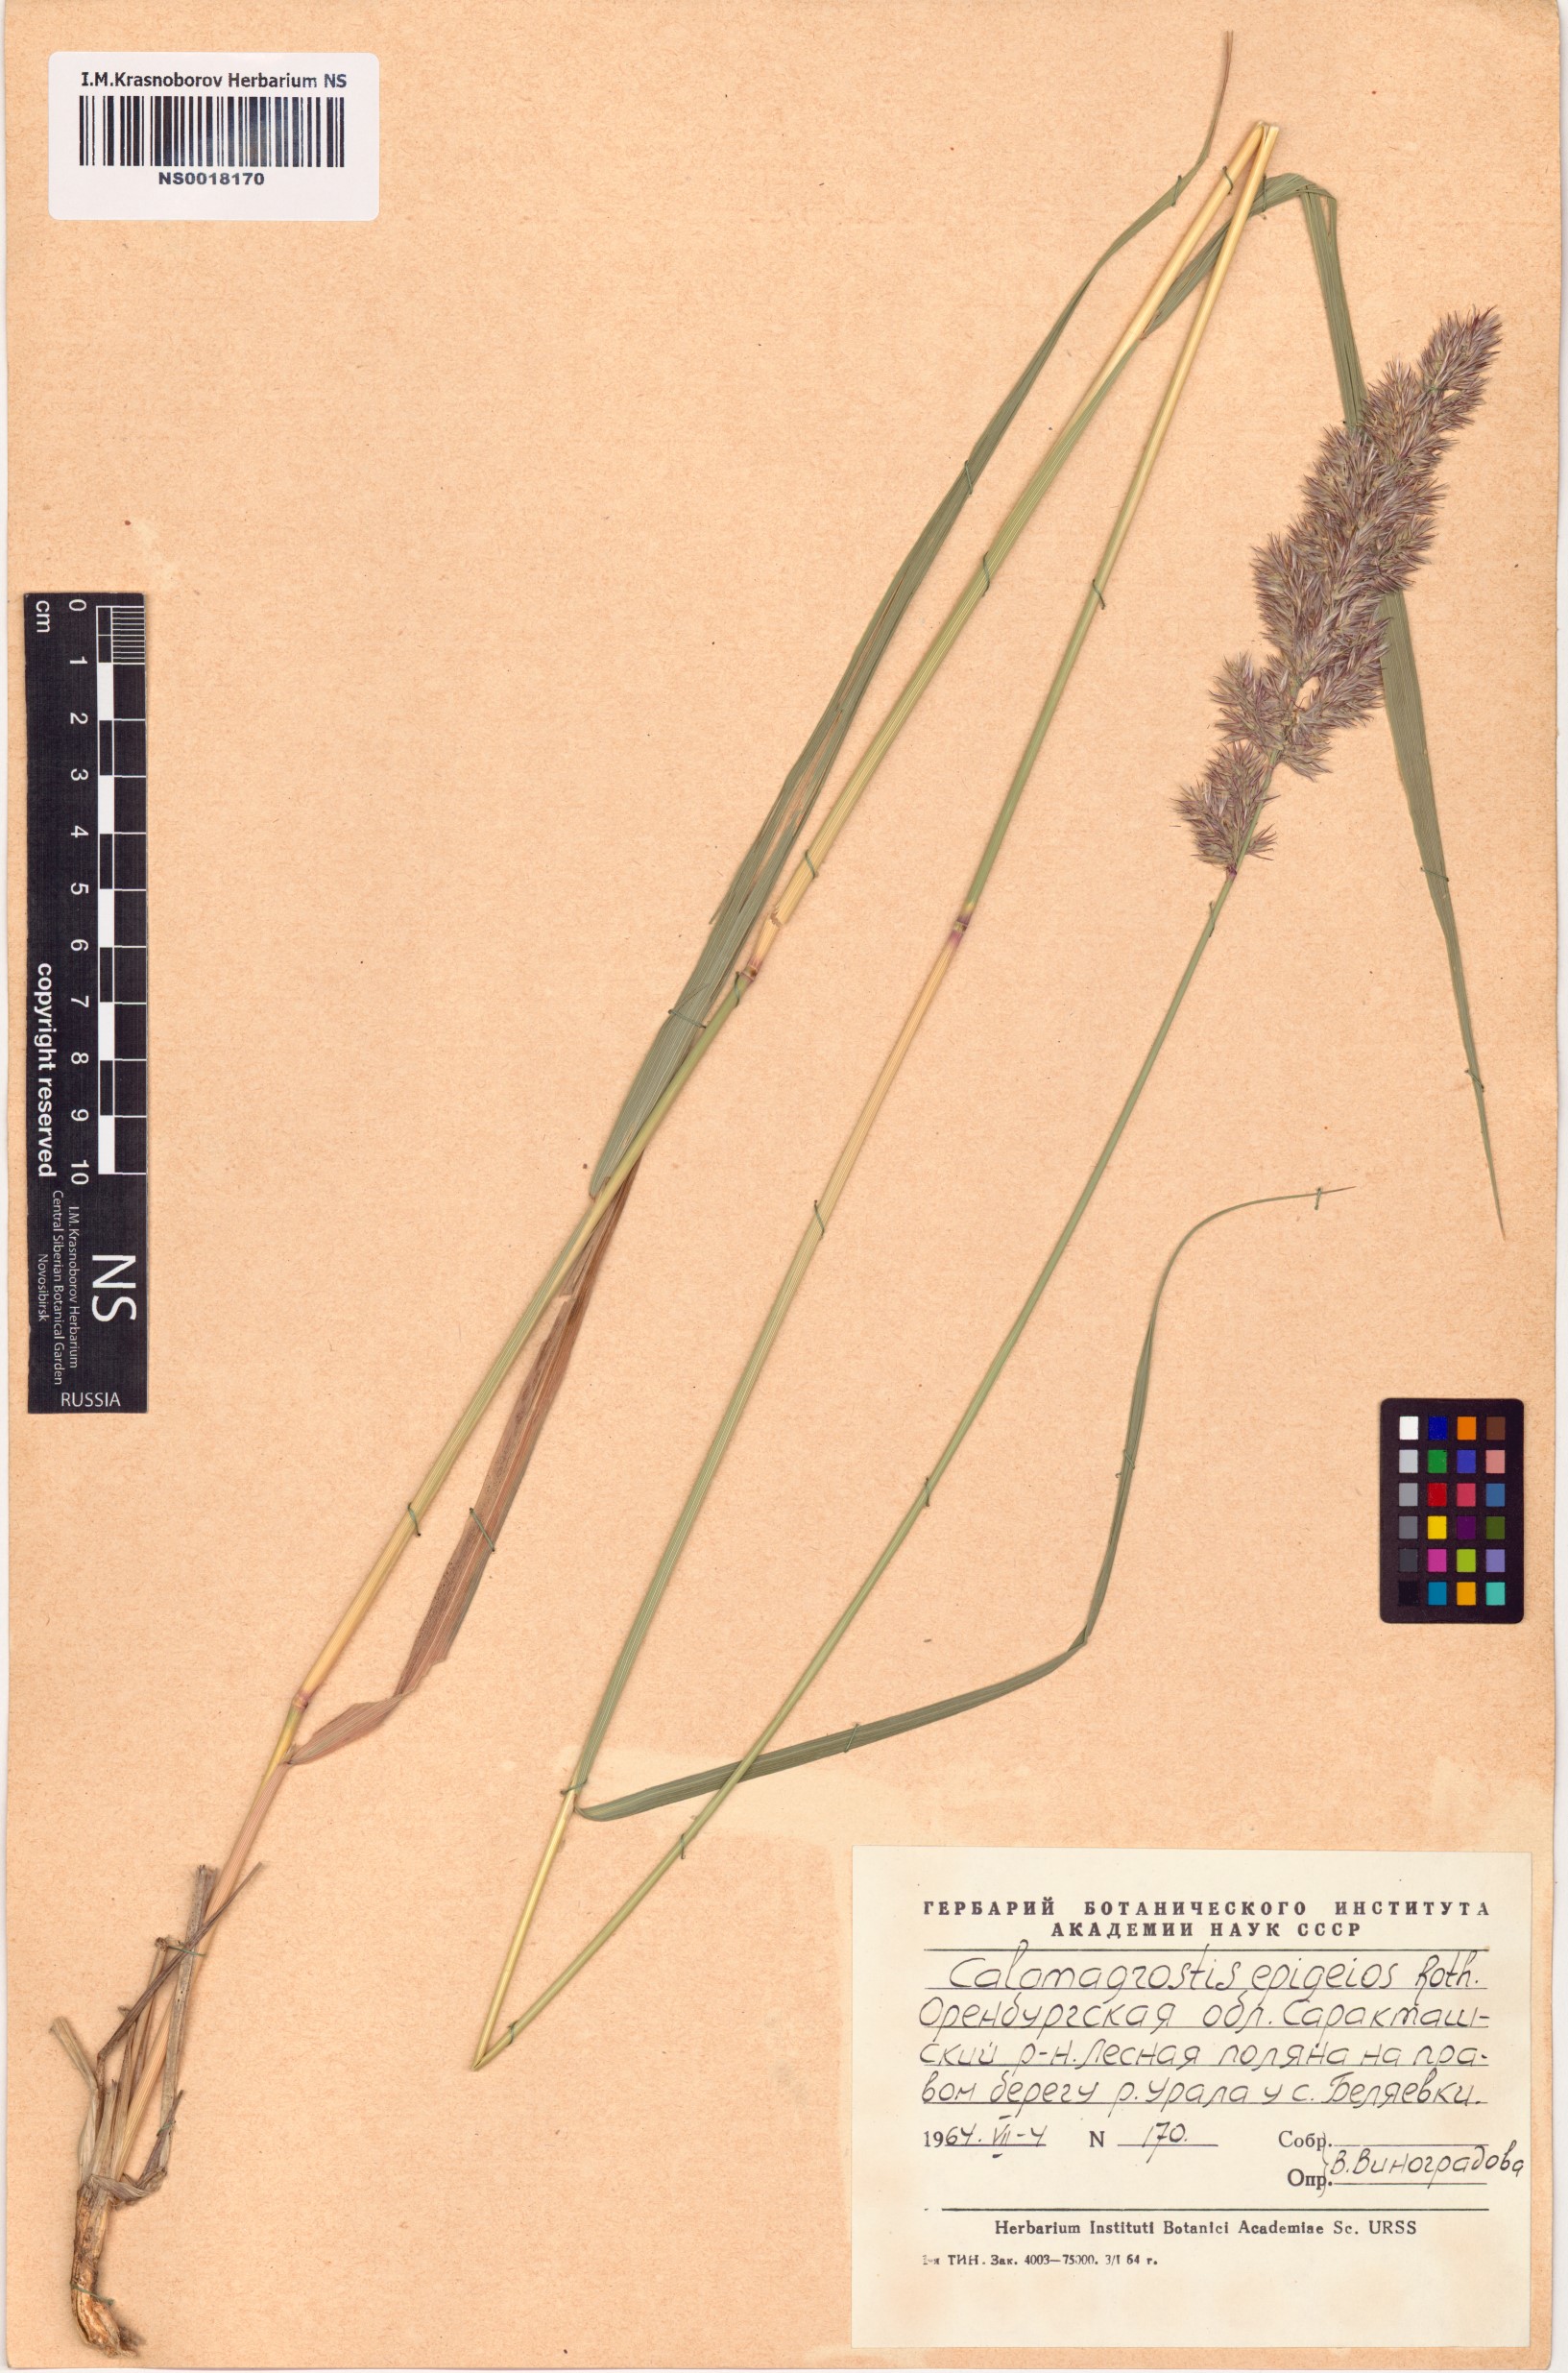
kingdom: Plantae
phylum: Tracheophyta
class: Liliopsida
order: Poales
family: Poaceae
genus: Calamagrostis
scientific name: Calamagrostis epigejos
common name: Wood small-reed
